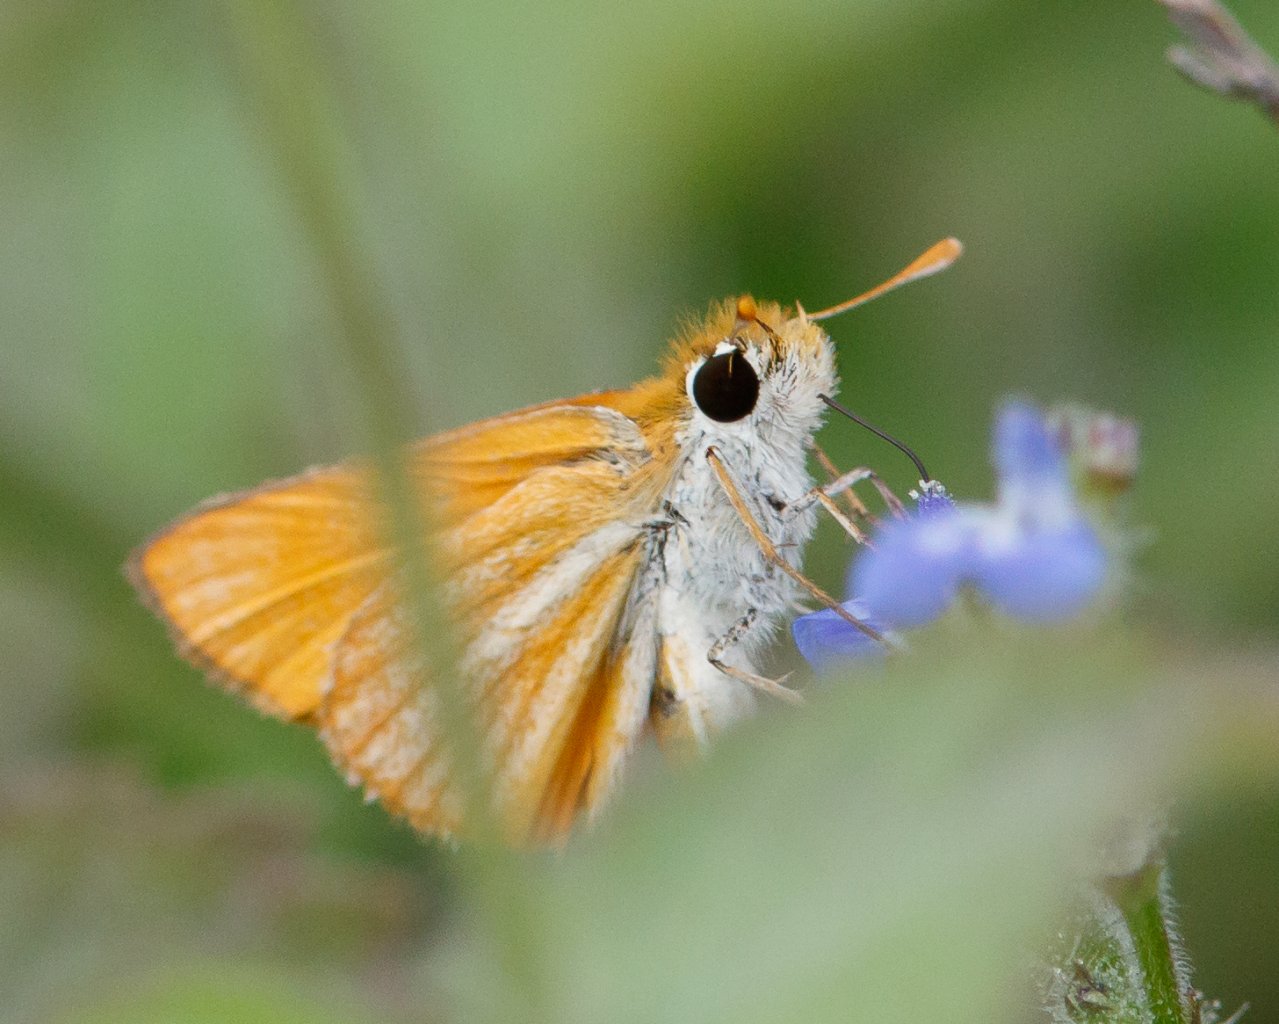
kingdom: Animalia
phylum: Arthropoda
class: Insecta
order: Lepidoptera
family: Hesperiidae
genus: Copaeodes
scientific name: Copaeodes minima
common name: Southern Skipperling
